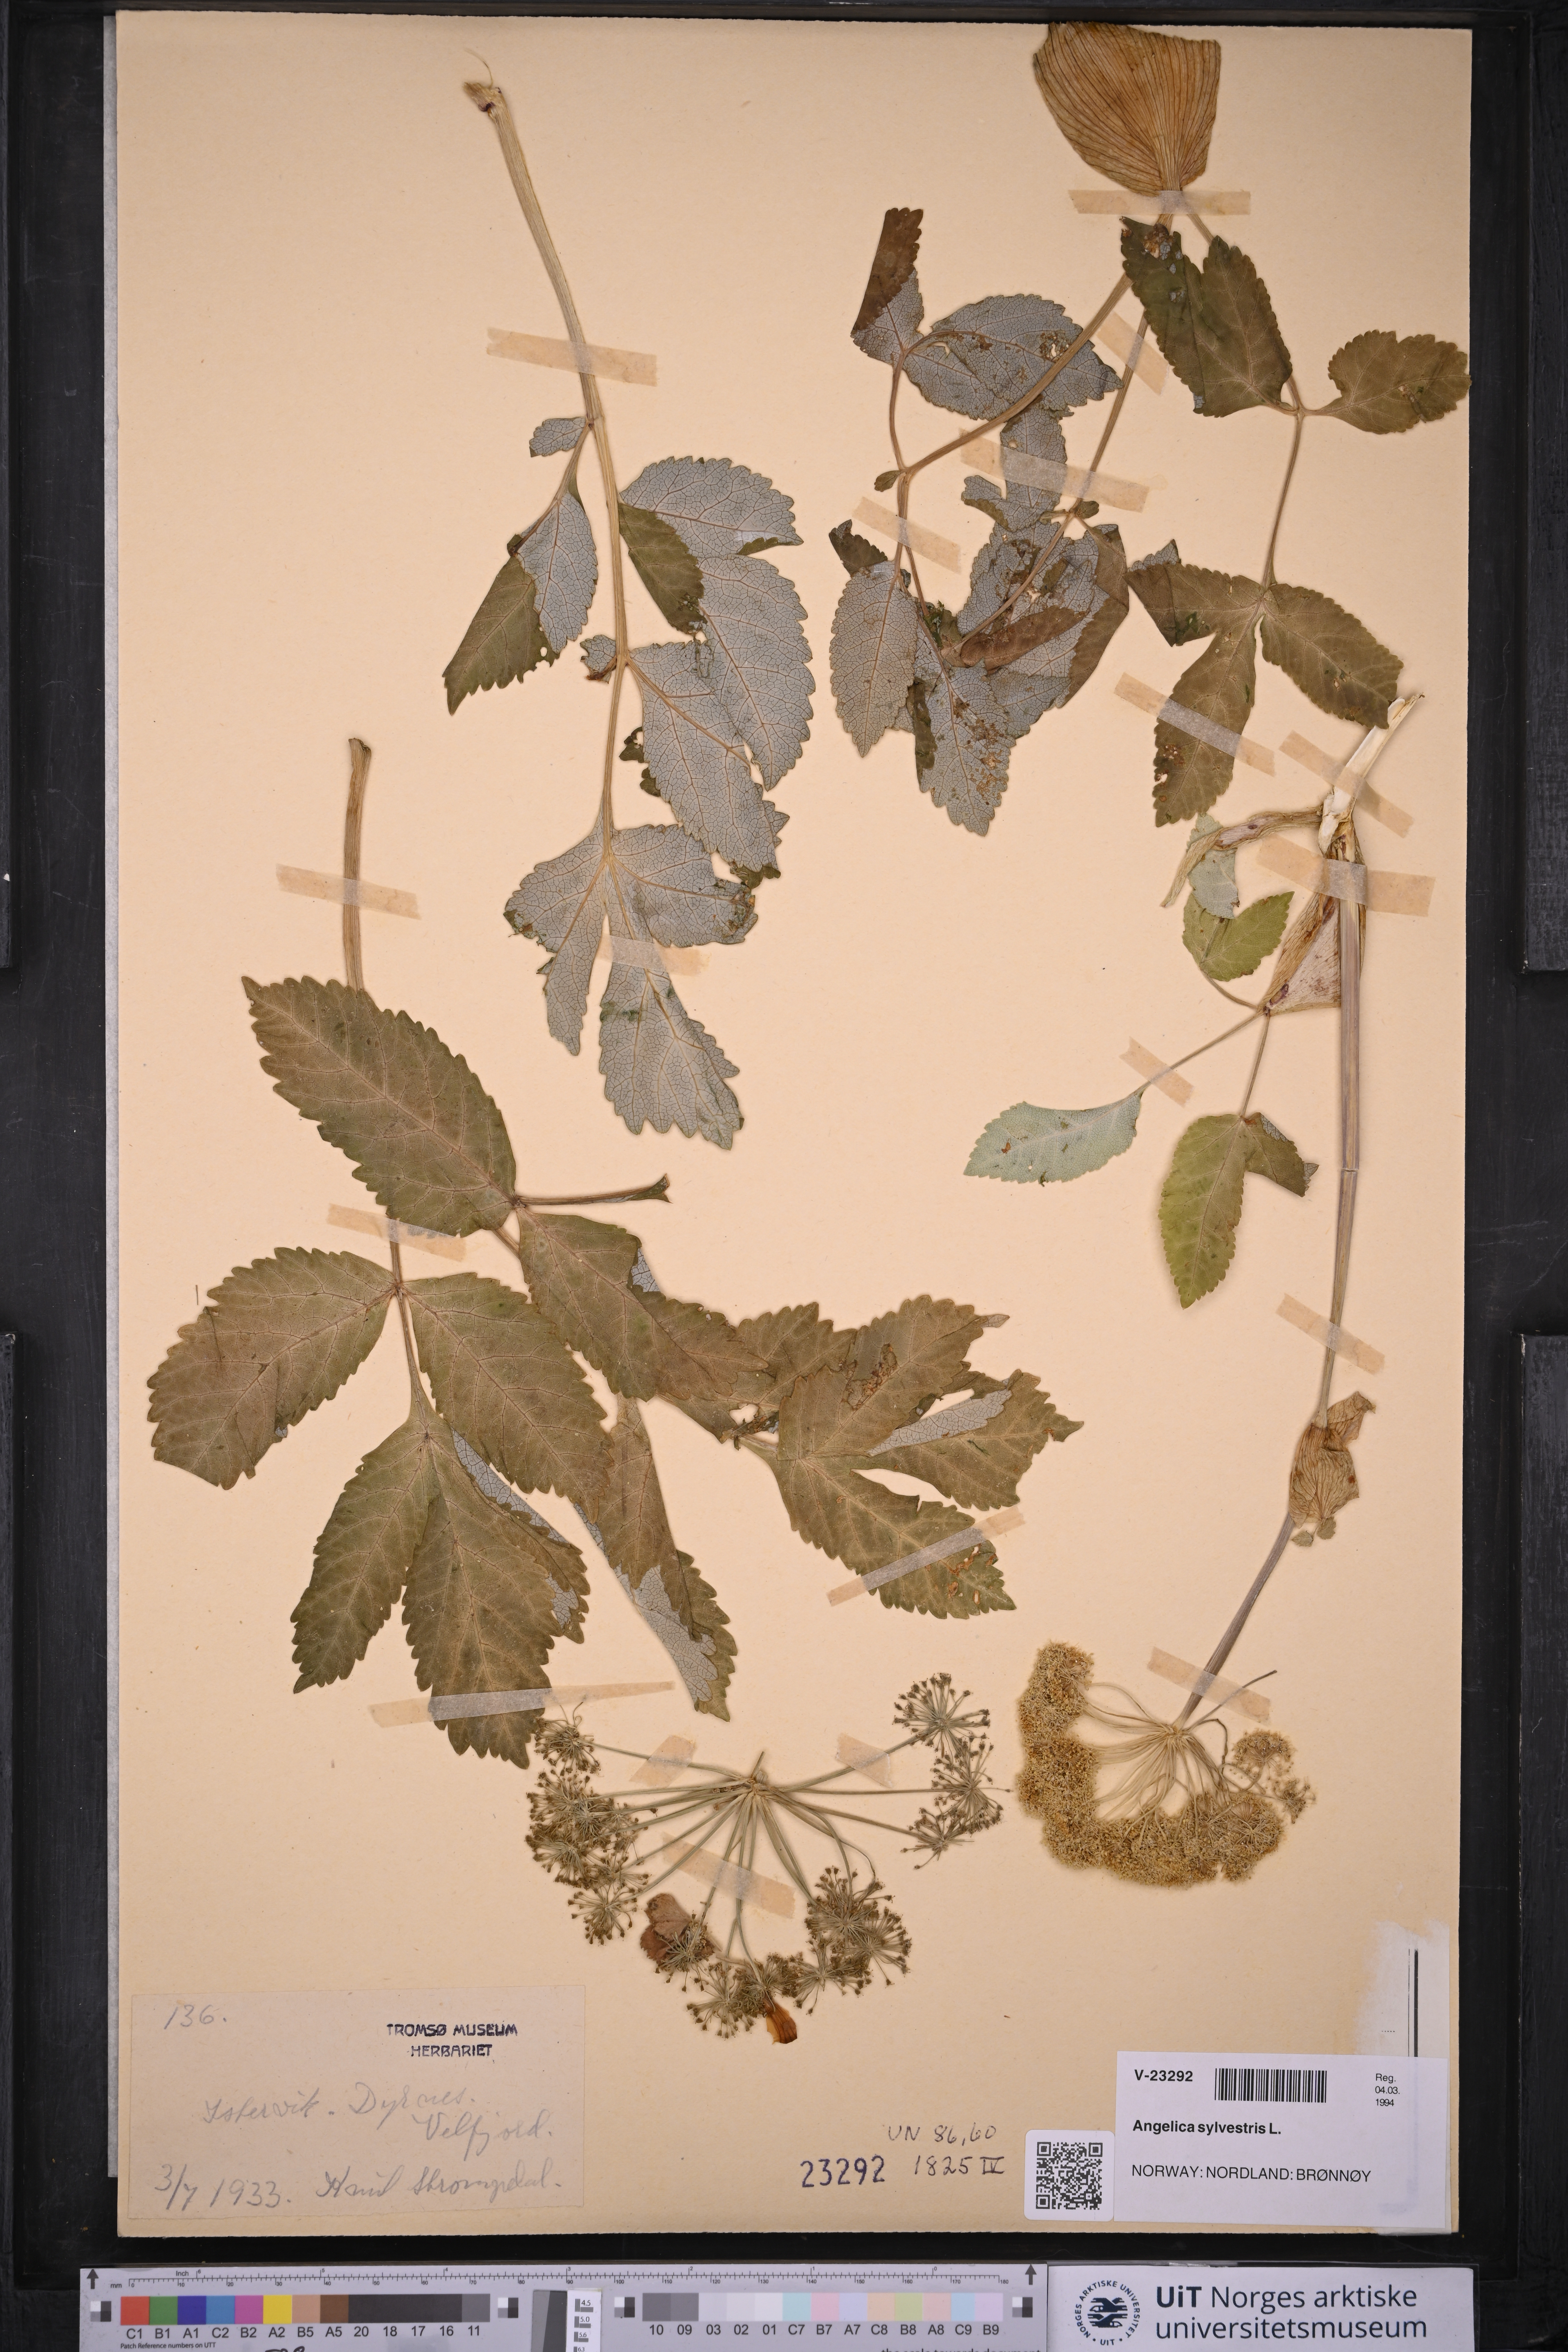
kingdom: Plantae
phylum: Tracheophyta
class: Magnoliopsida
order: Apiales
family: Apiaceae
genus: Angelica
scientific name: Angelica sylvestris
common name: Wild angelica
